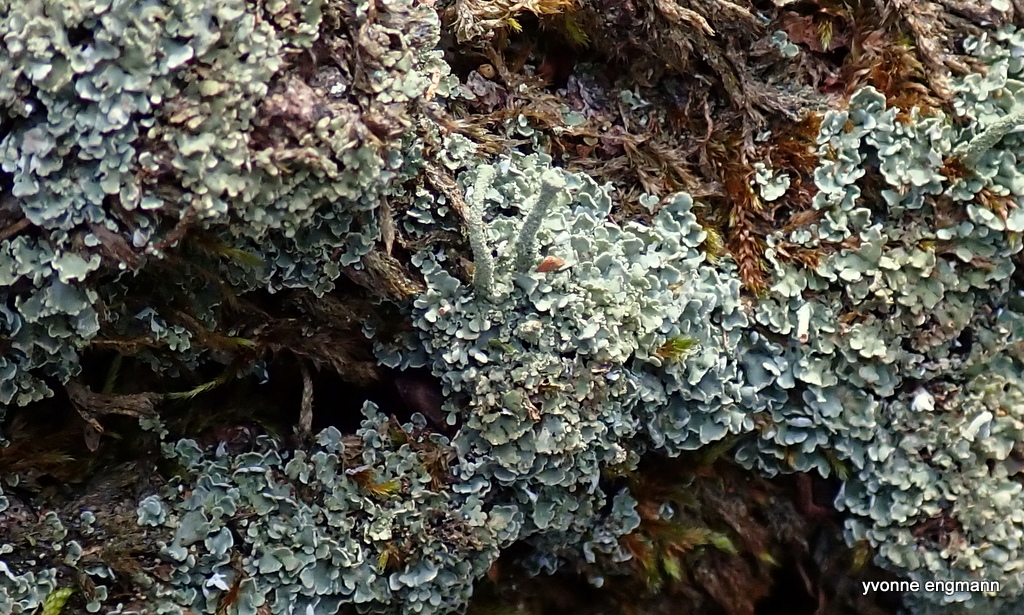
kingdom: Fungi
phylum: Ascomycota
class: Lecanoromycetes
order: Lecanorales
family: Cladoniaceae
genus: Cladonia
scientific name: Cladonia ochrochlora
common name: stød-bægerlav
